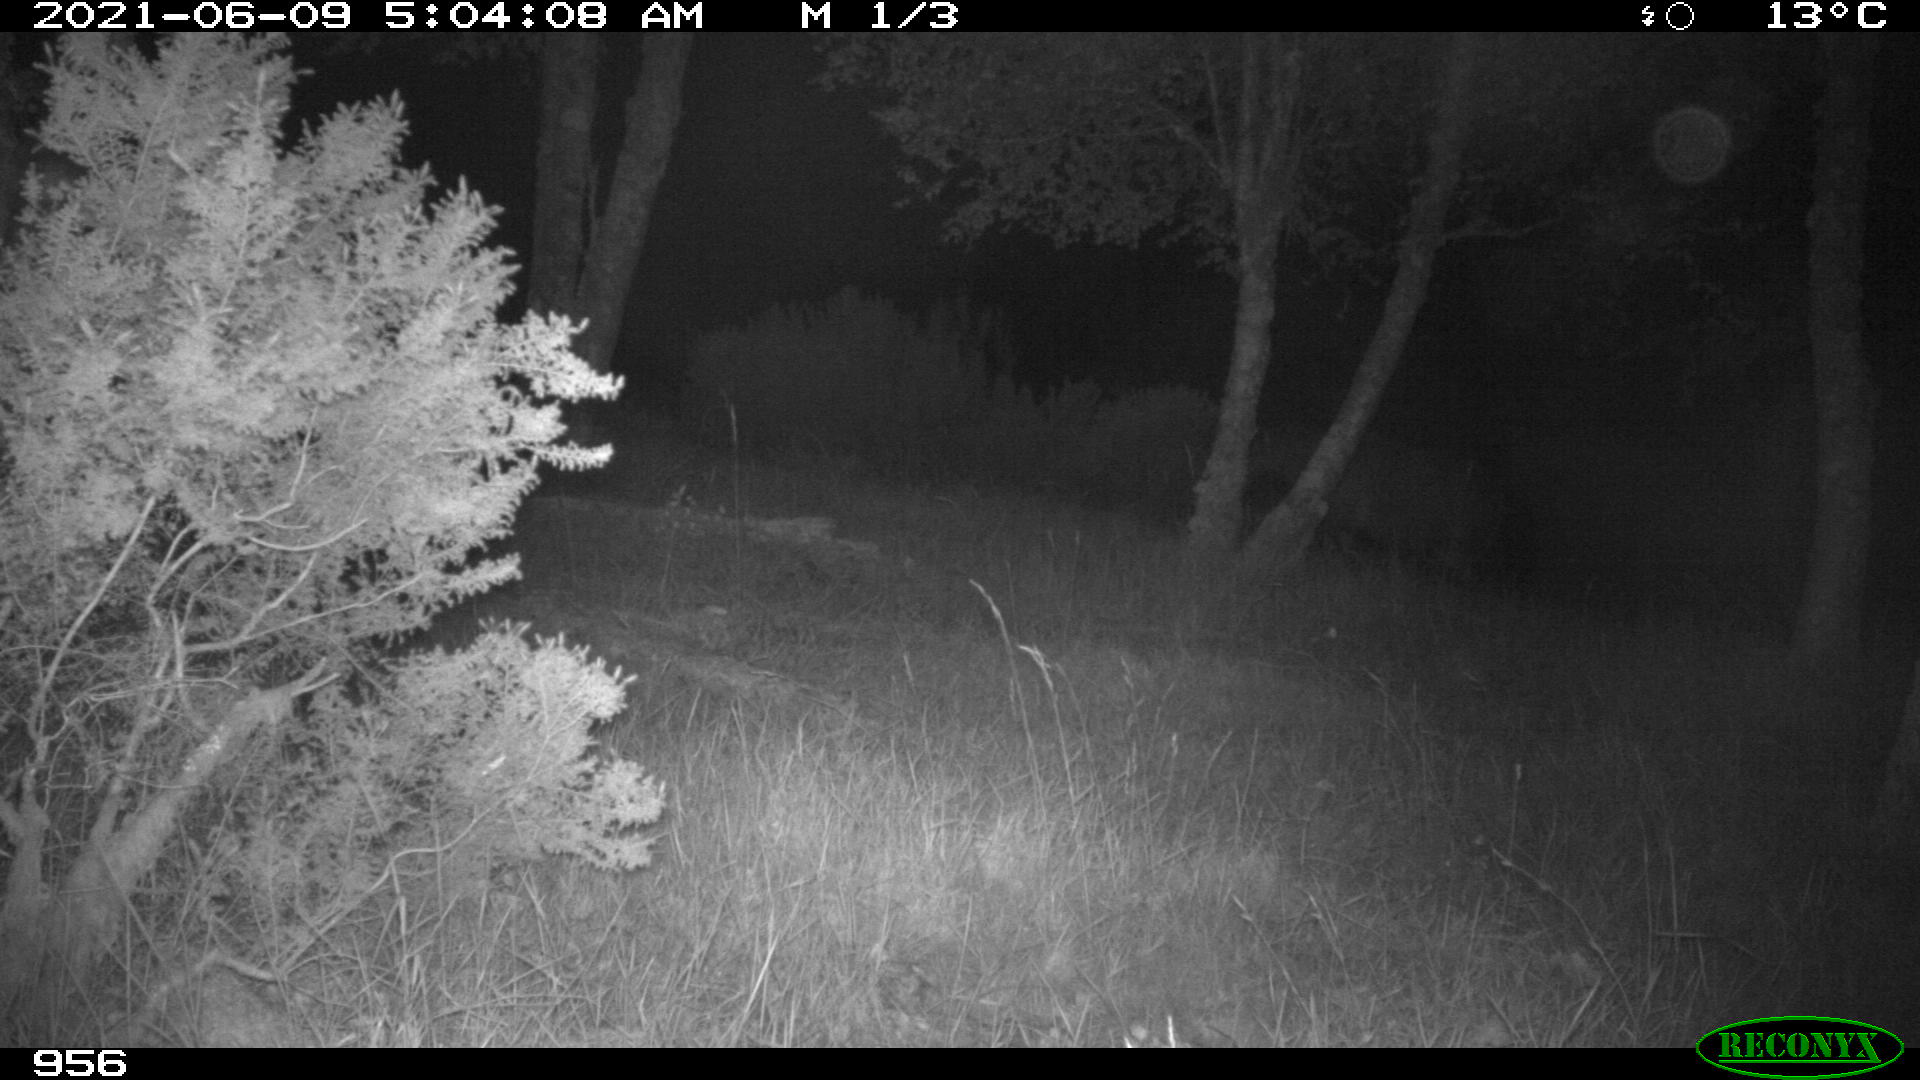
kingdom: Animalia
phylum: Chordata
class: Mammalia
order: Perissodactyla
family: Equidae
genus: Equus
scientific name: Equus caballus
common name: Horse
